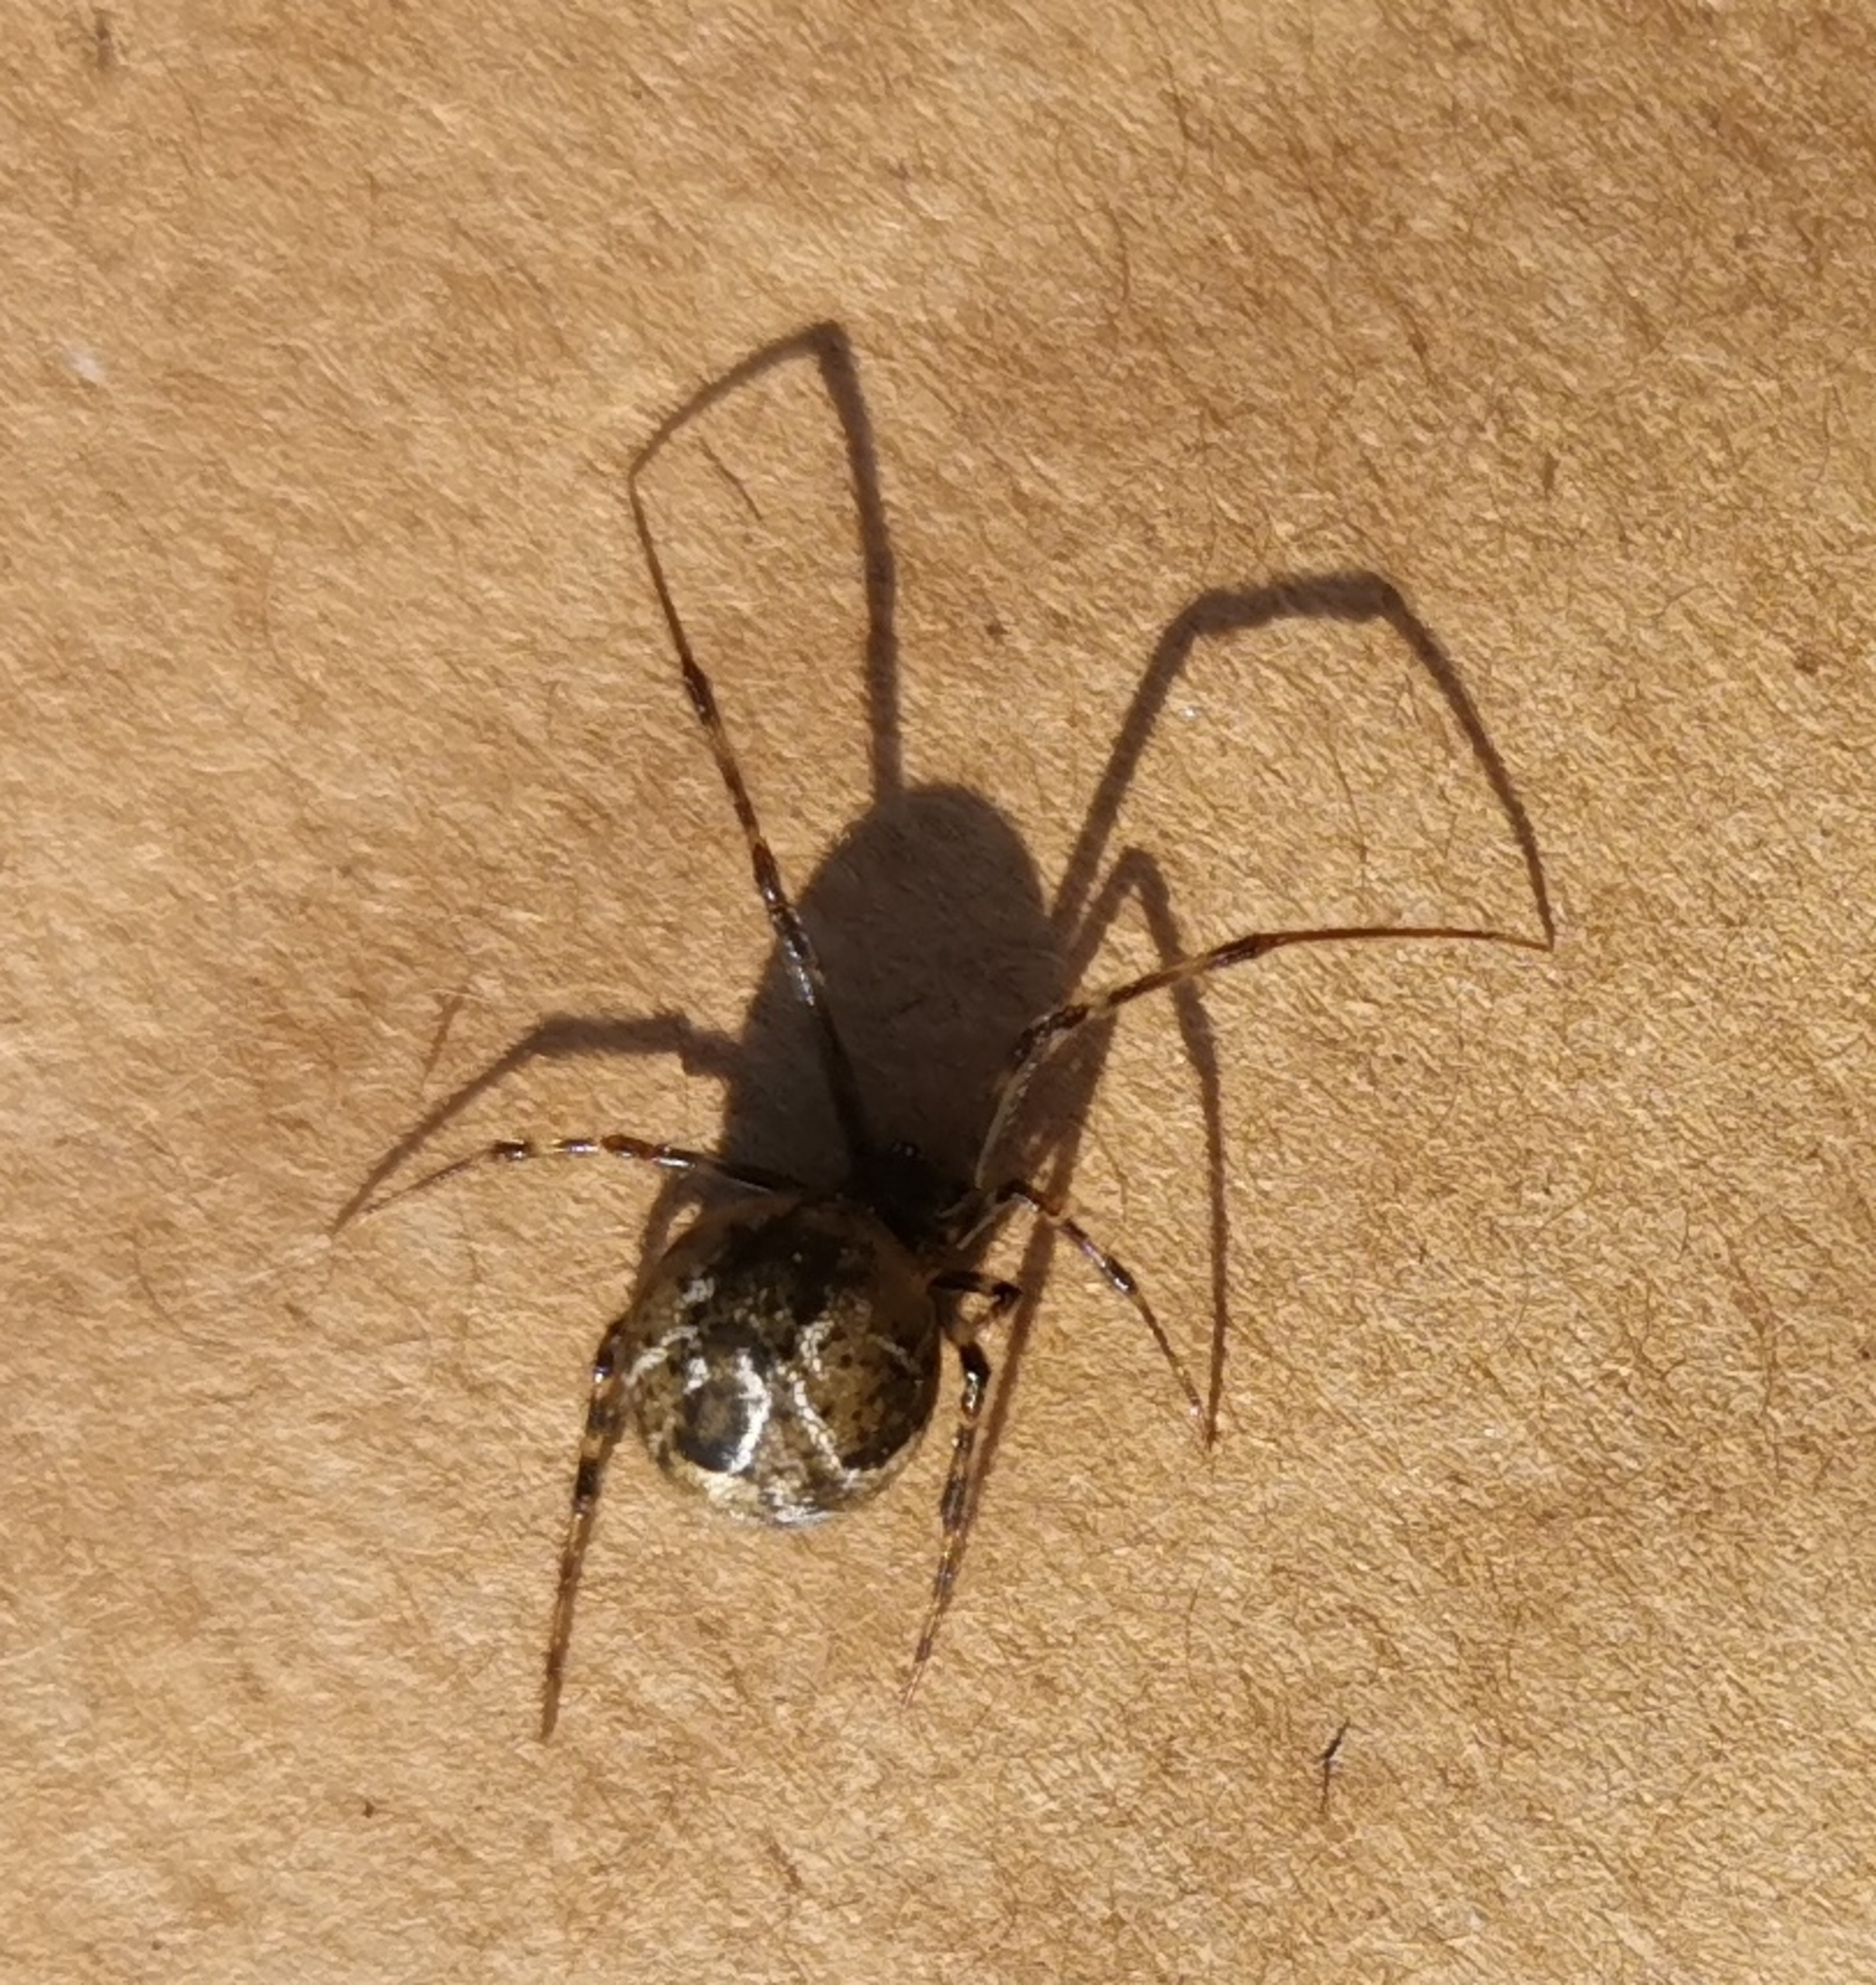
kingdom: Animalia
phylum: Arthropoda
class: Arachnida
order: Araneae
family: Theridiidae
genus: Parasteatoda
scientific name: Parasteatoda tepidariorum
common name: Væksthusspinder
